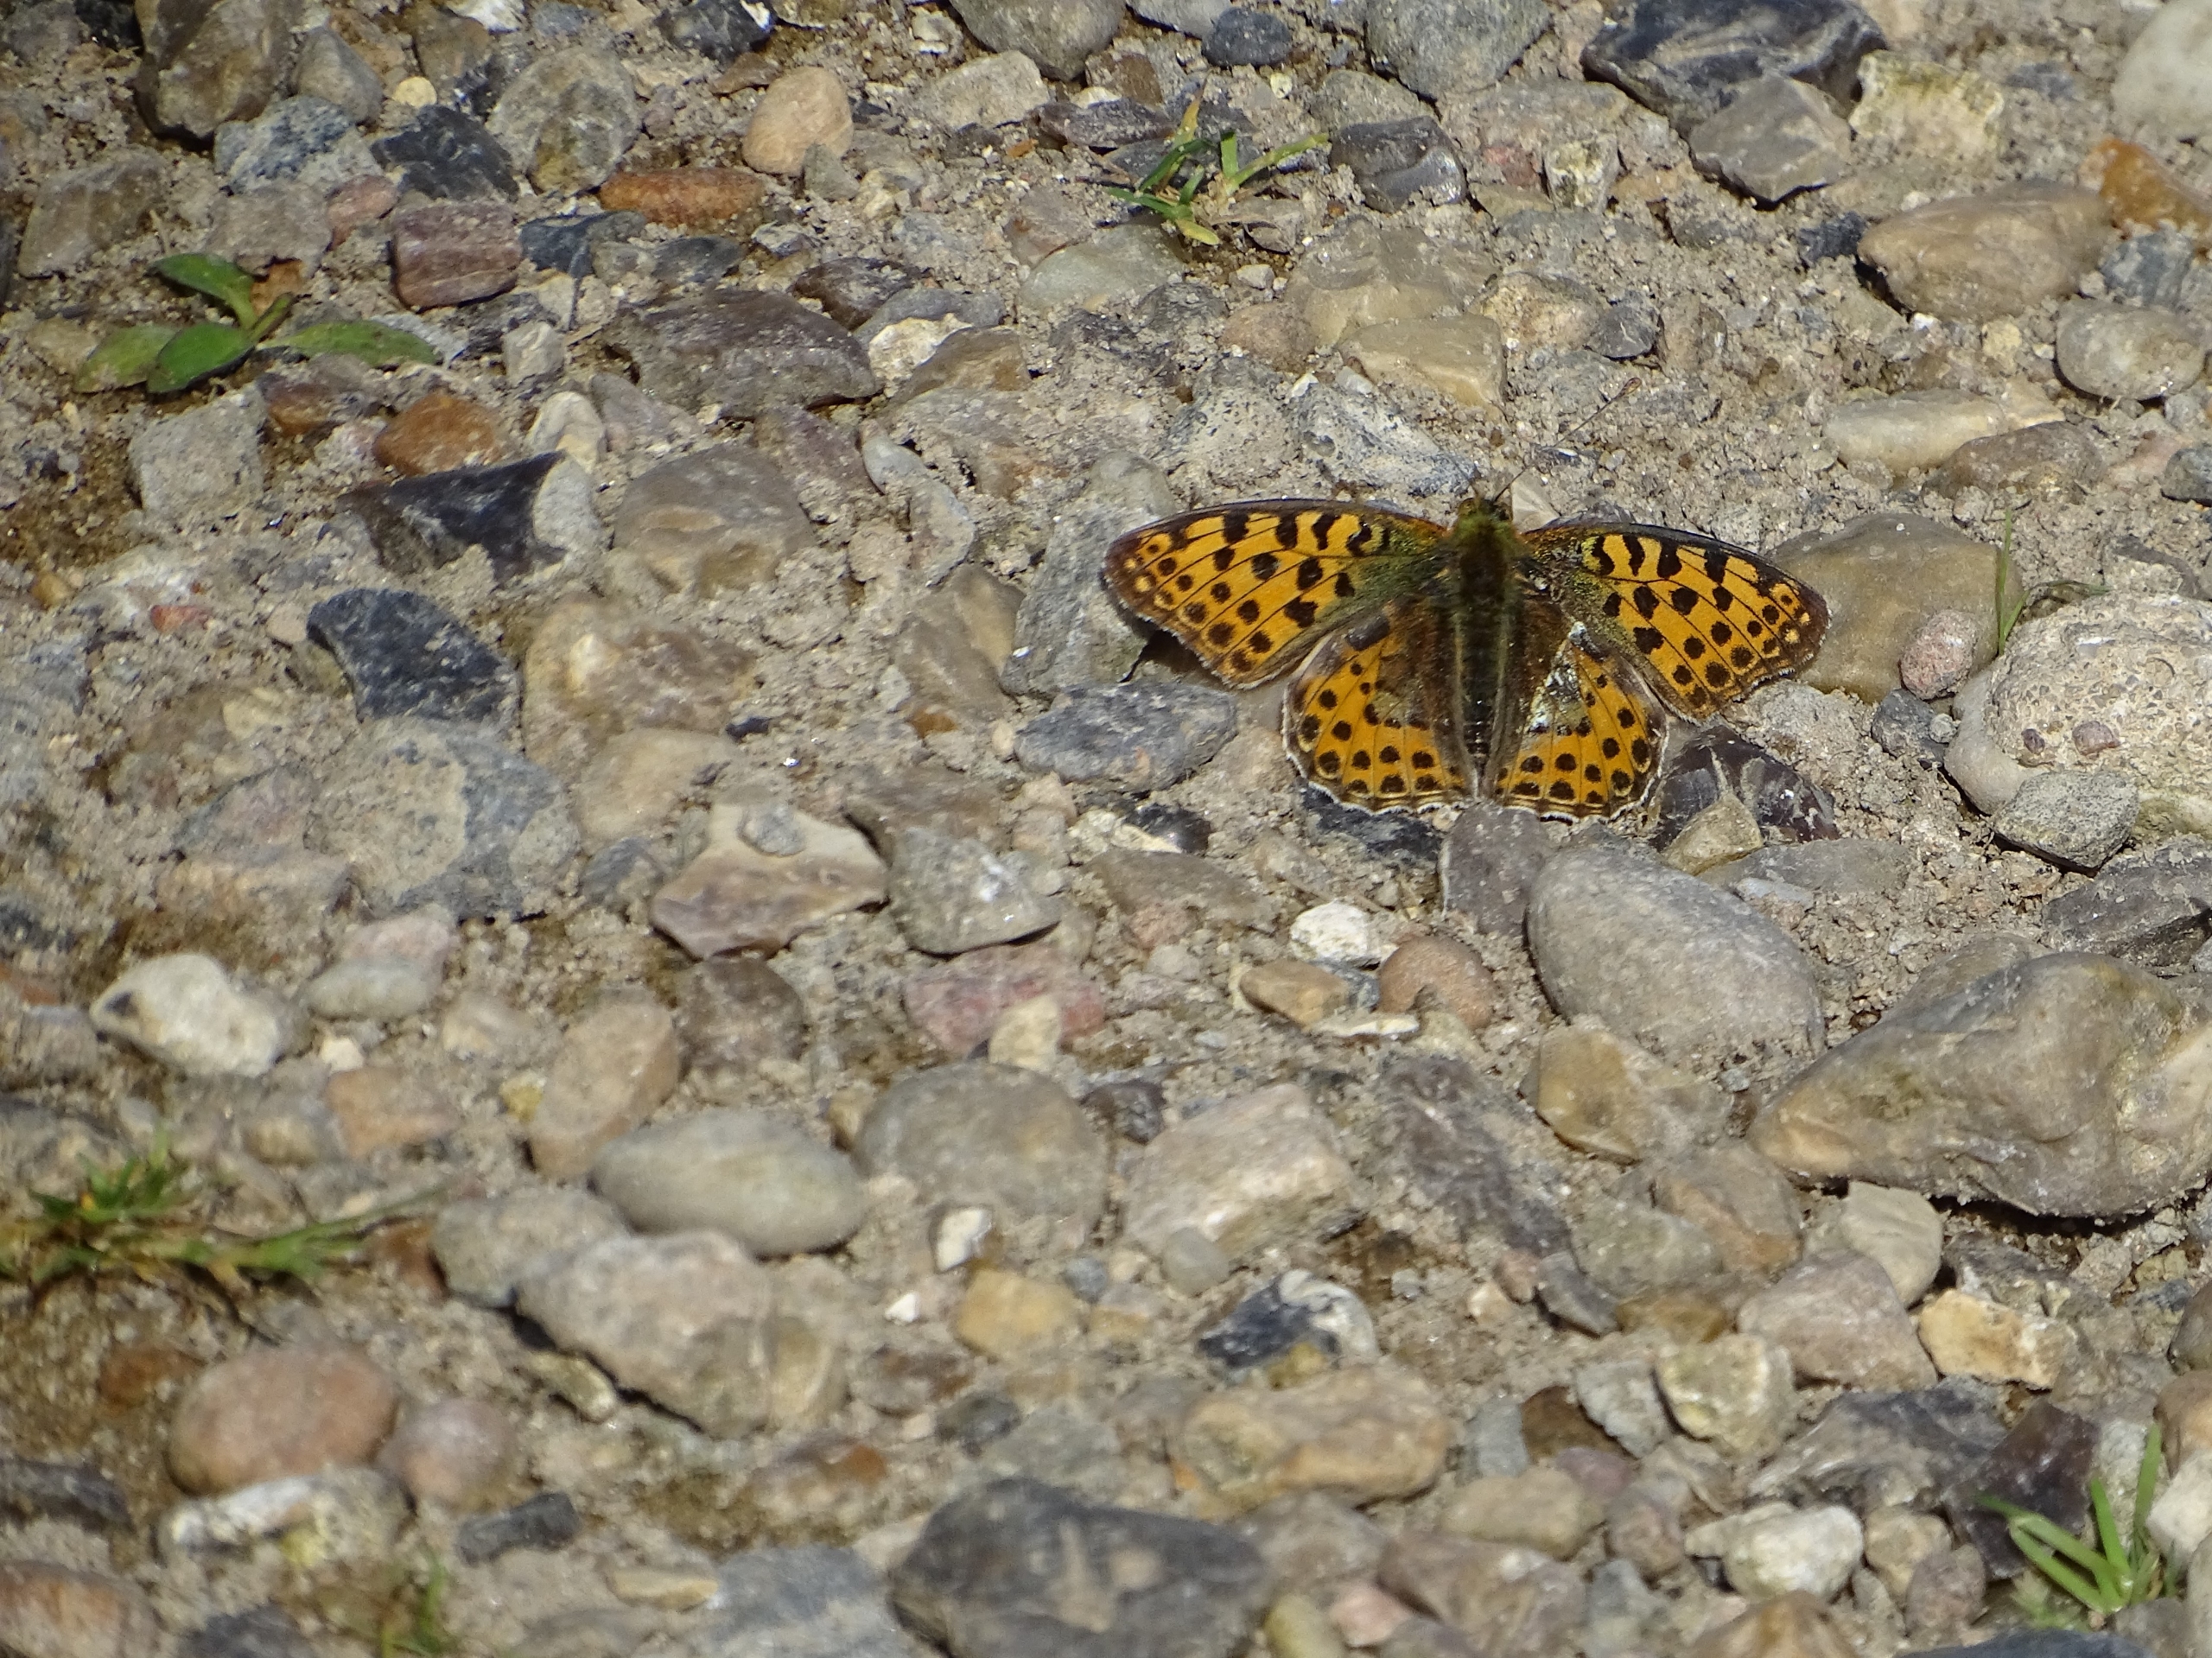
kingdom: Animalia
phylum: Arthropoda
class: Insecta
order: Lepidoptera
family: Nymphalidae
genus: Issoria
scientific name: Issoria lathonia
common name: Storplettet perlemorsommerfugl
